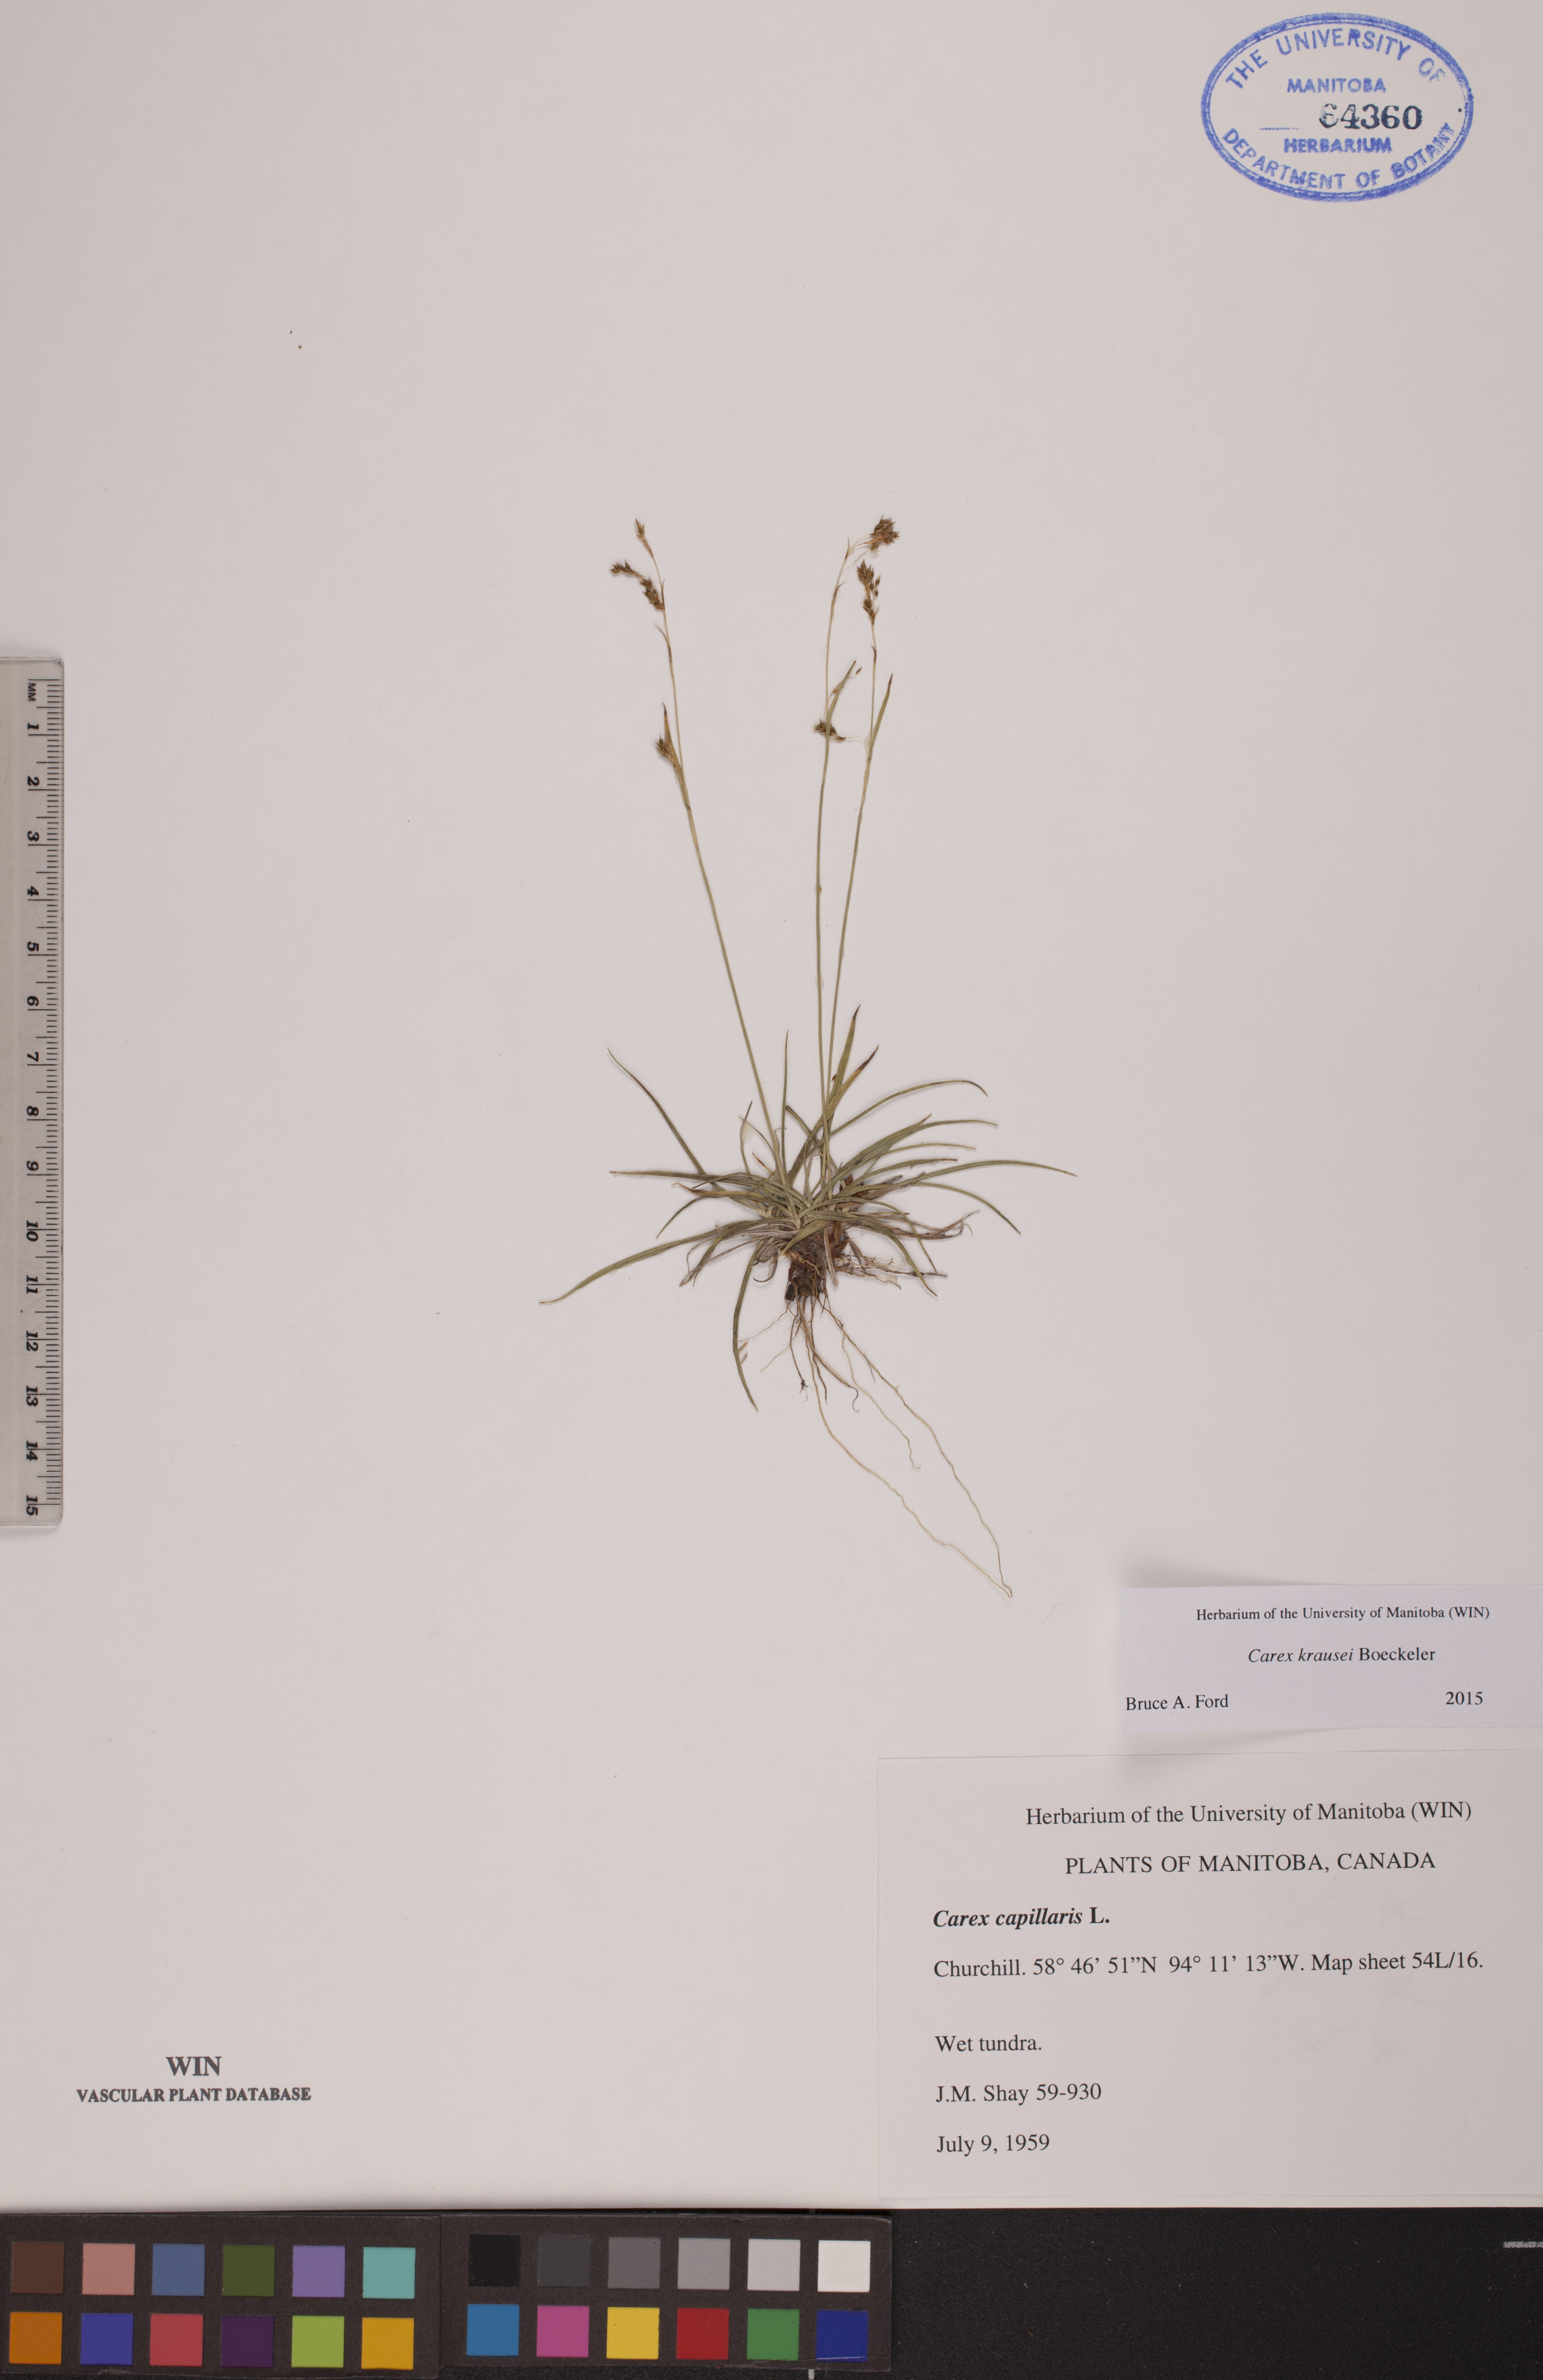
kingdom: Plantae
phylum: Tracheophyta
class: Liliopsida
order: Poales
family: Cyperaceae
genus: Carex
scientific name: Carex krausei
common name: Krause's sedge
